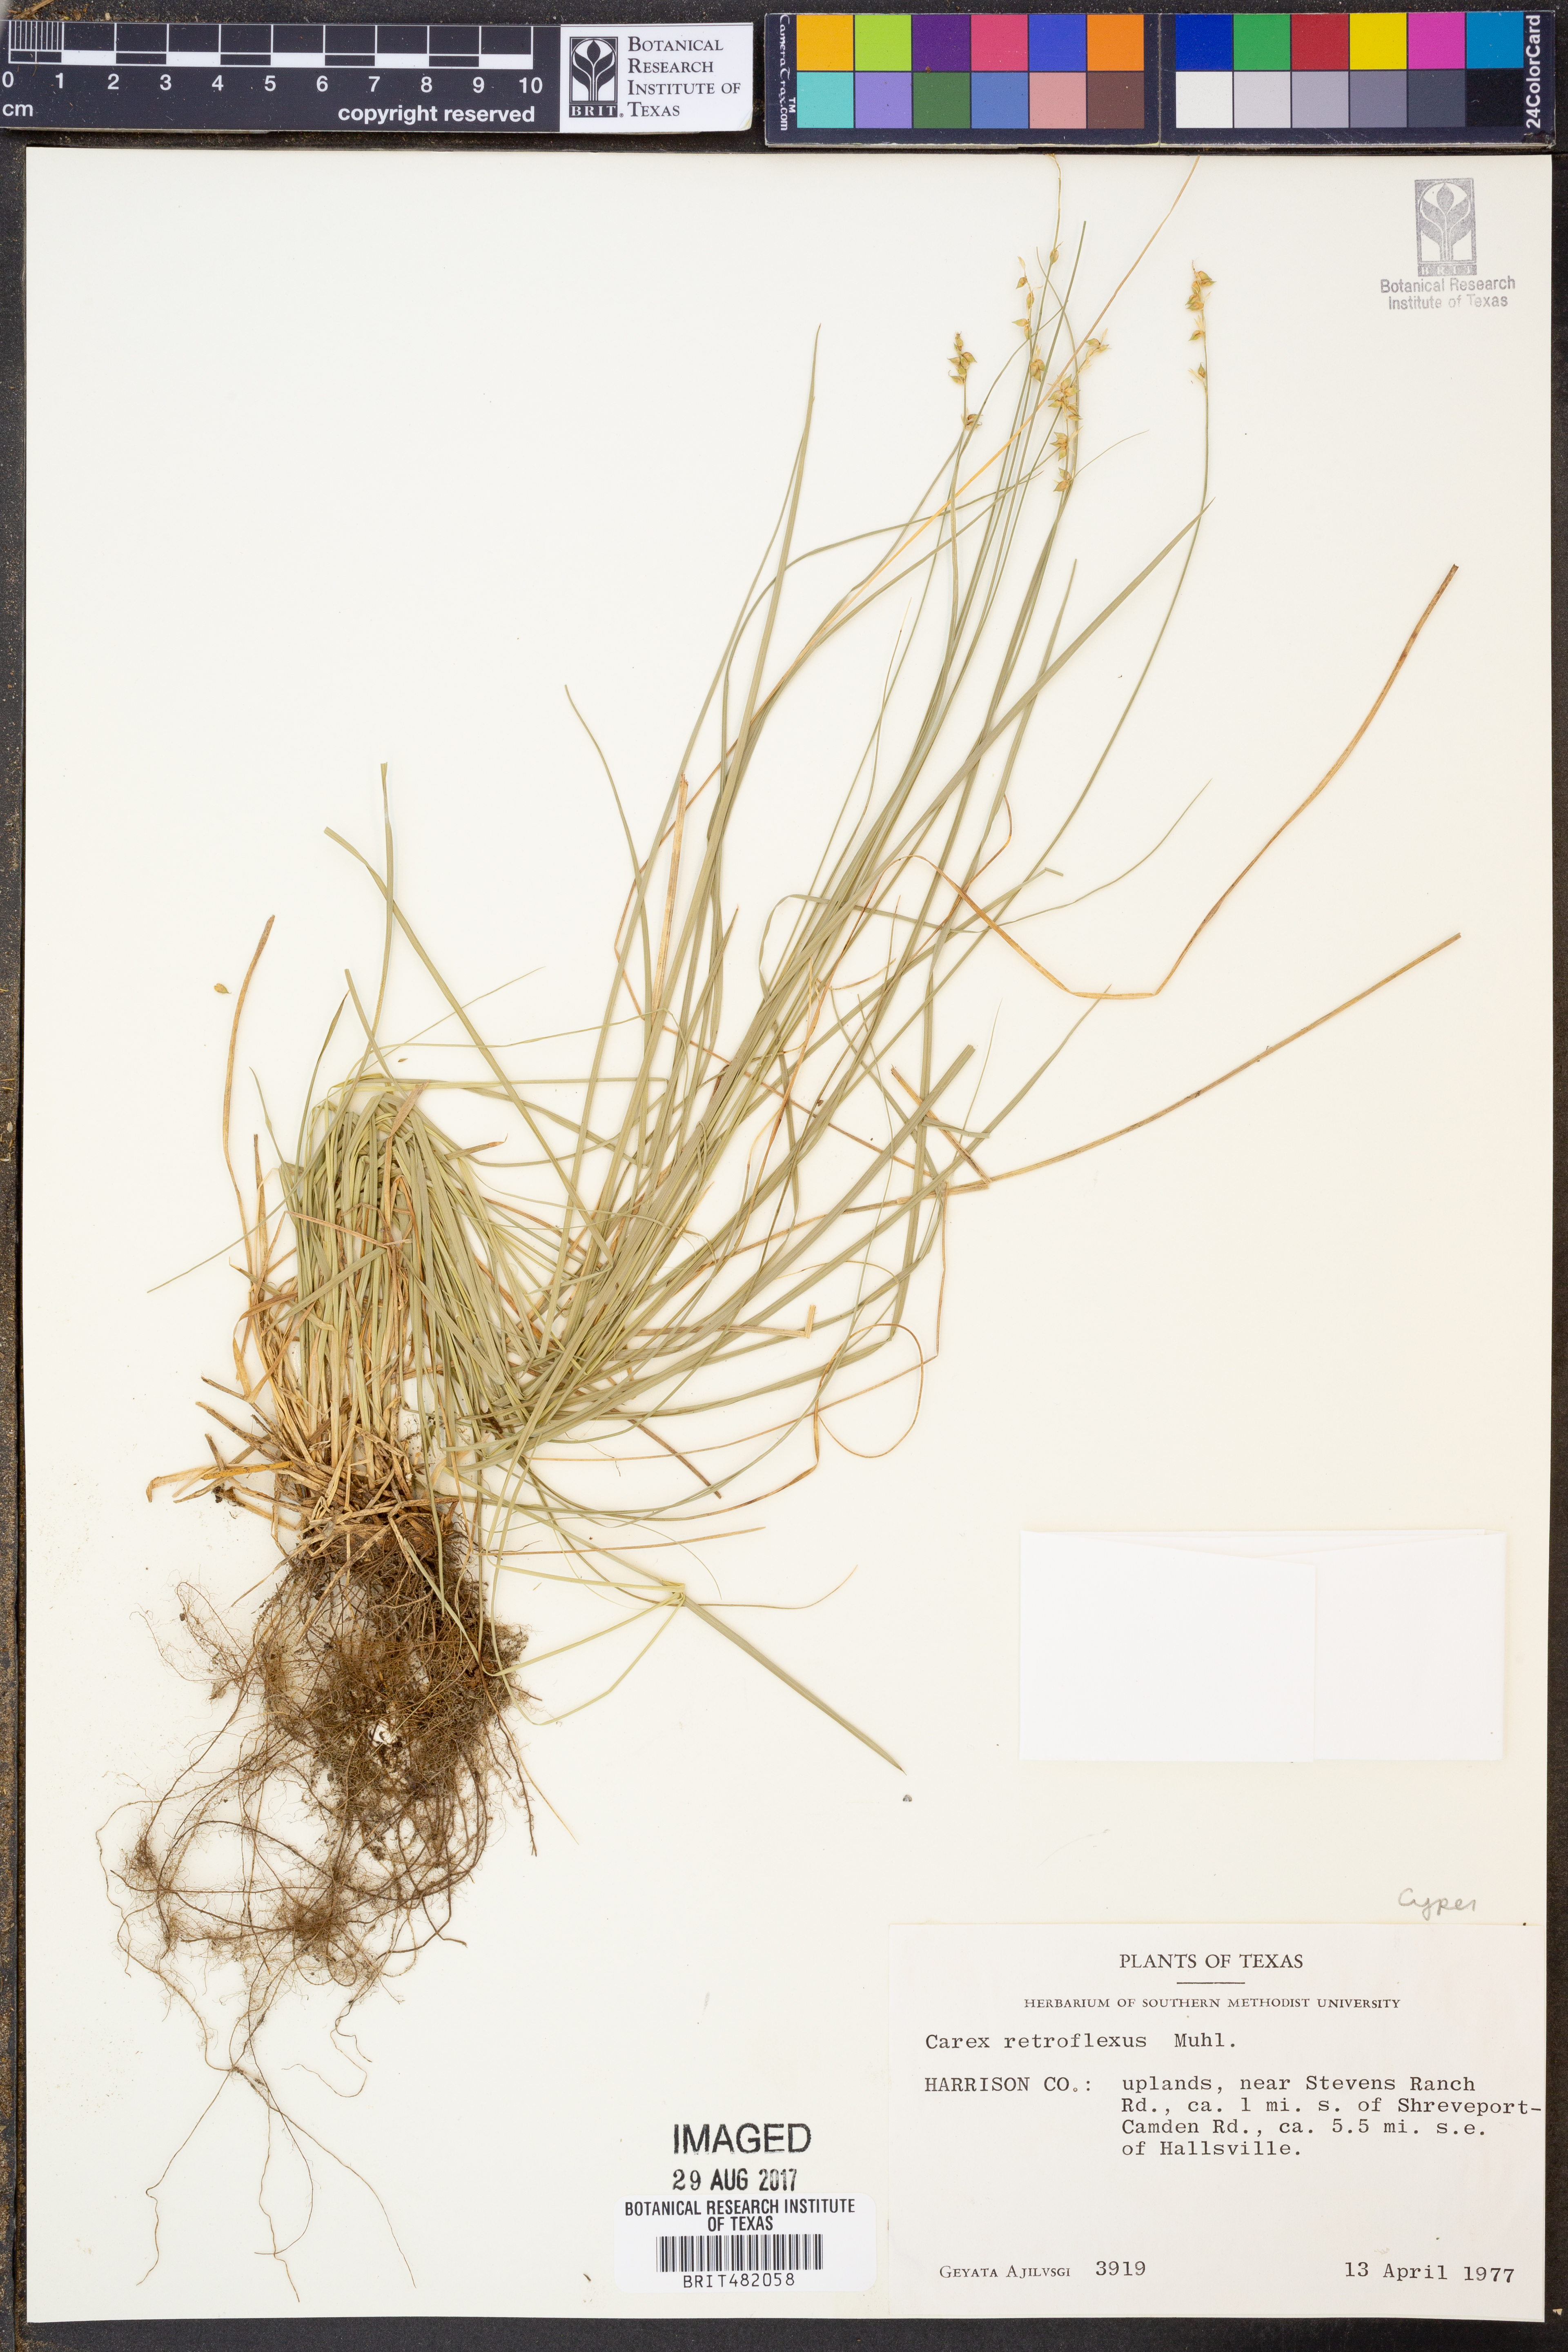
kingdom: Plantae
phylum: Tracheophyta
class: Liliopsida
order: Poales
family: Cyperaceae
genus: Carex
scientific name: Carex retroflexa
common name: Reflexed sedge
